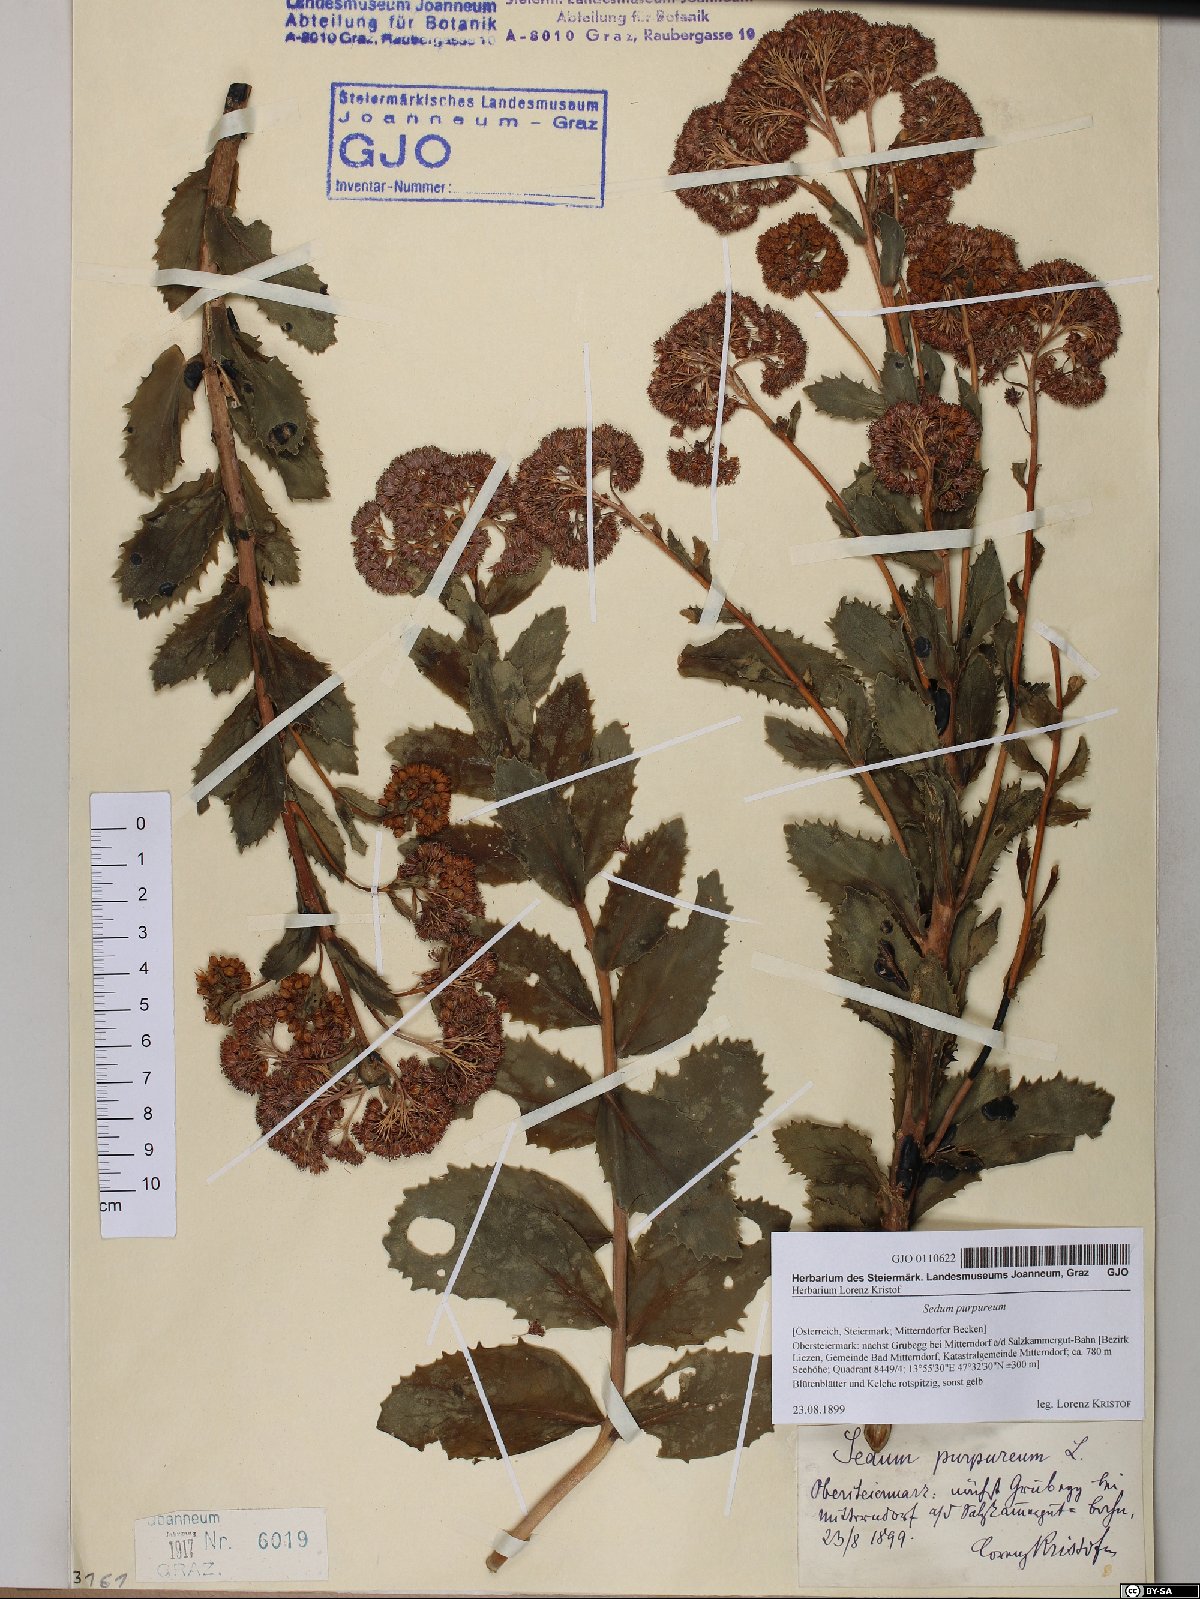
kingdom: Plantae
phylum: Tracheophyta
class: Magnoliopsida
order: Saxifragales
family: Crassulaceae
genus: Hylotelephium
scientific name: Hylotelephium telephium
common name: Live-forever
